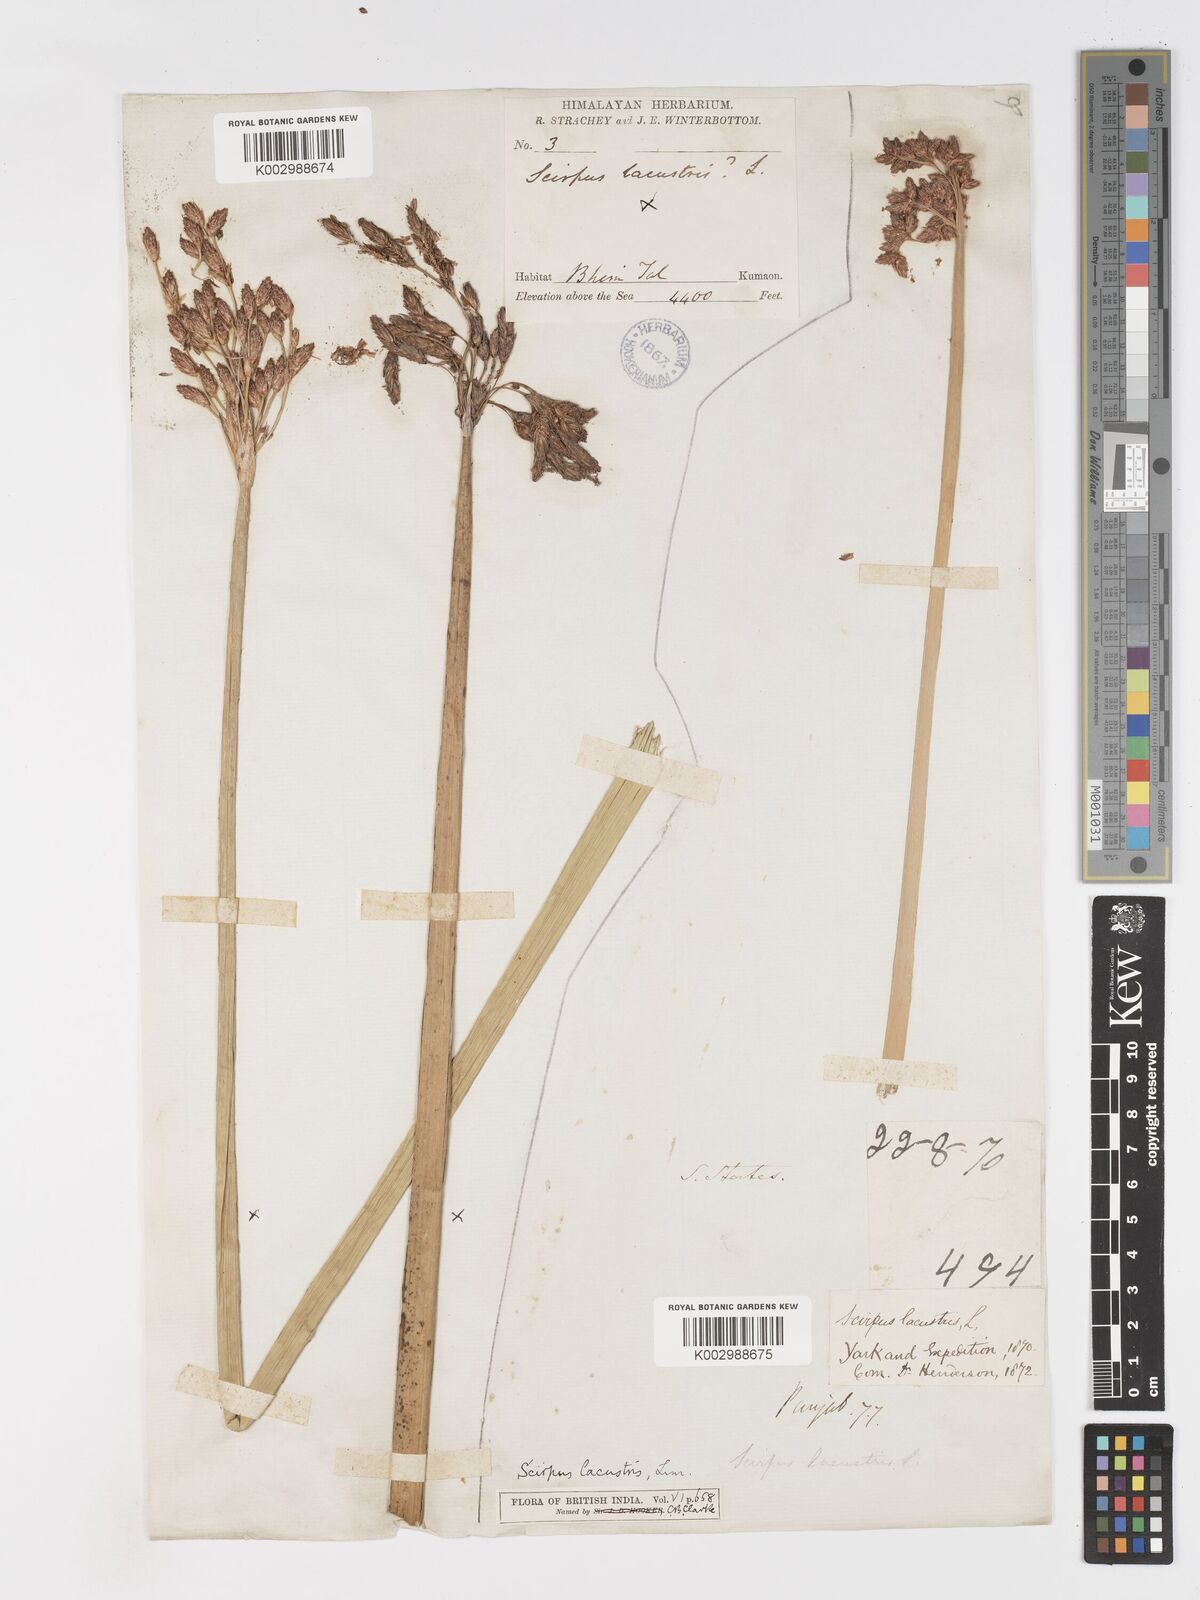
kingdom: Plantae
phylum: Tracheophyta
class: Liliopsida
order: Poales
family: Cyperaceae
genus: Schoenoplectus
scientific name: Schoenoplectus lacustris
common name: Common club-rush
